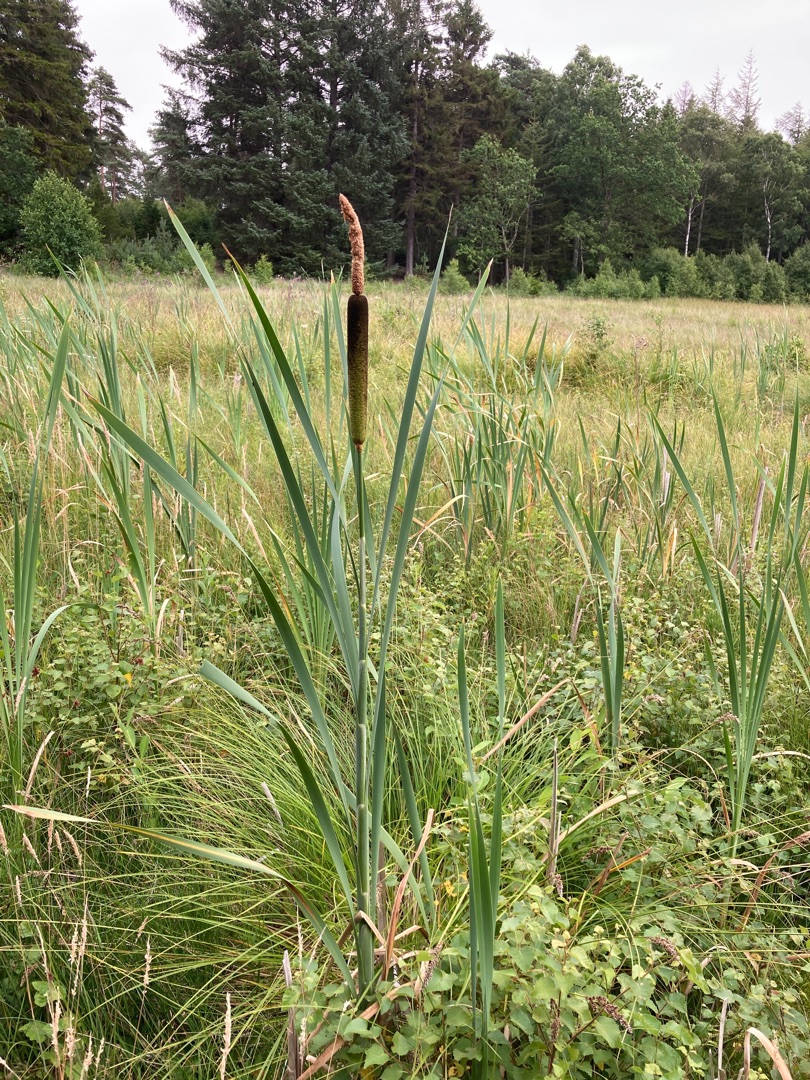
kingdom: Plantae
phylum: Tracheophyta
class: Liliopsida
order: Poales
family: Typhaceae
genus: Typha
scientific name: Typha latifolia
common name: Bredbladet dunhammer
